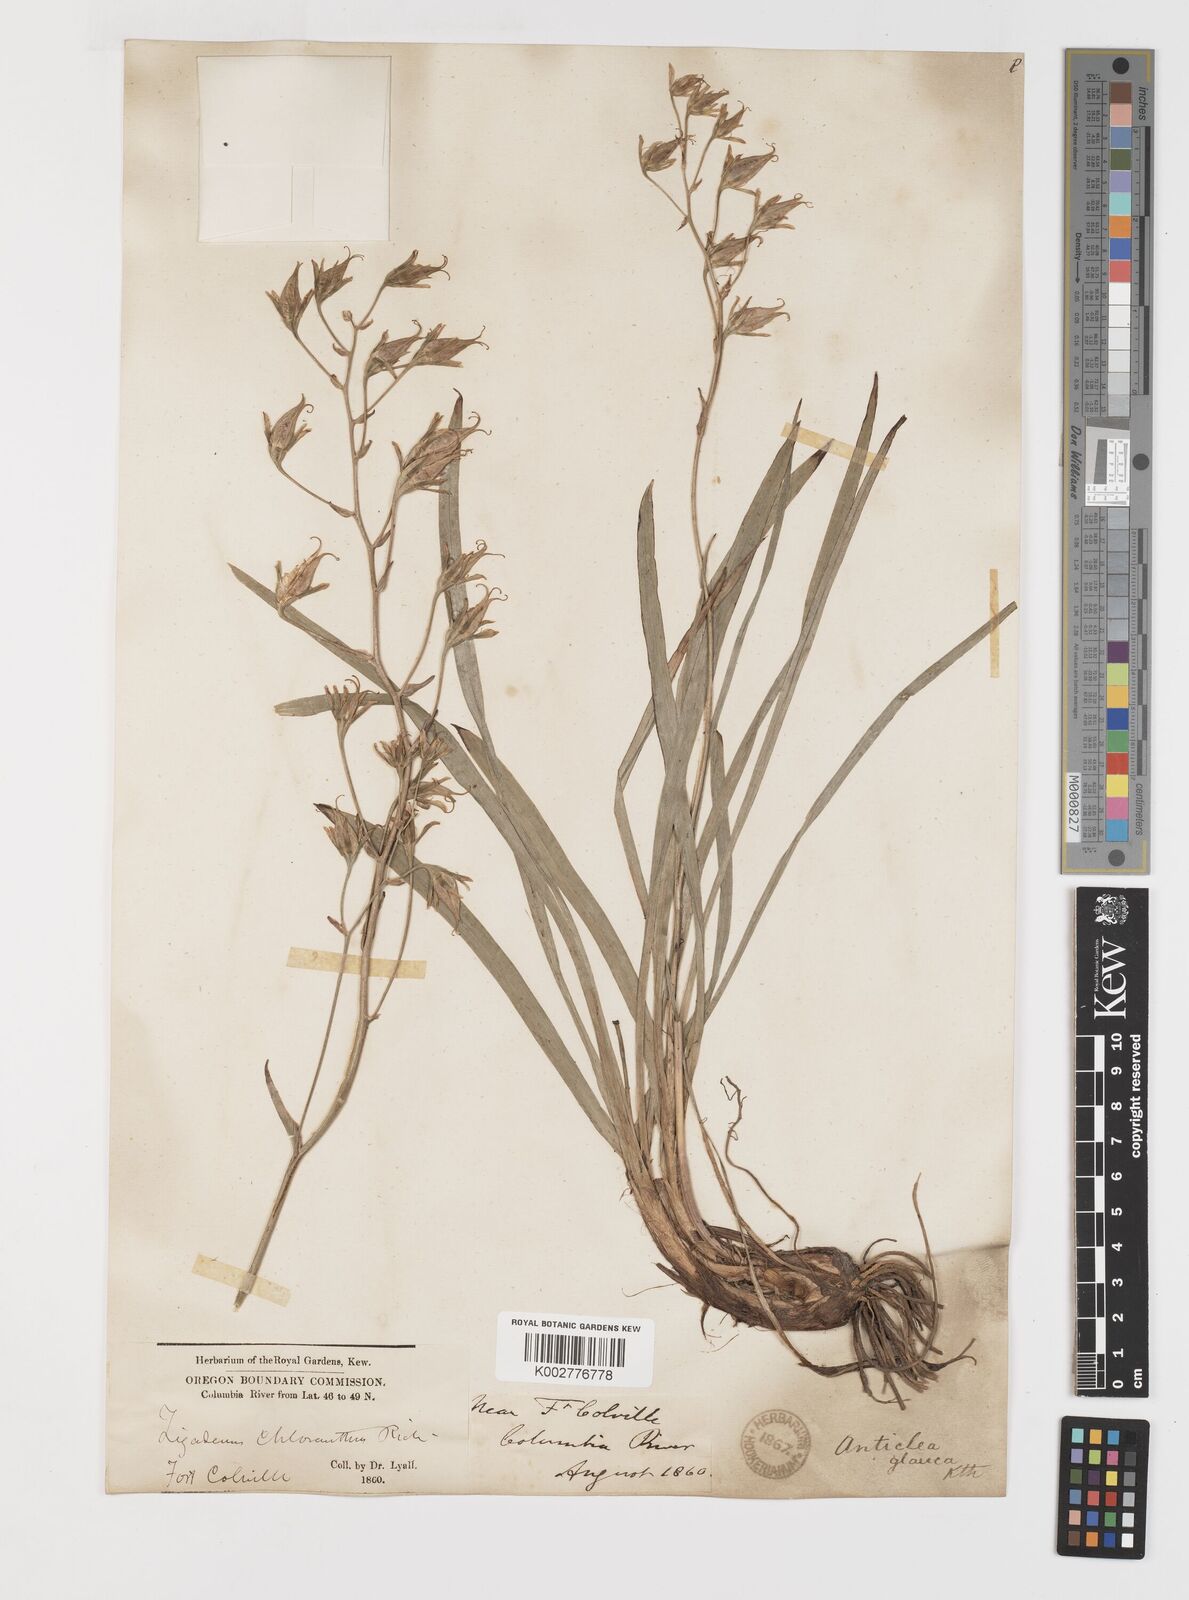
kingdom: Plantae
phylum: Tracheophyta
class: Liliopsida
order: Liliales
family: Melanthiaceae
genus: Anticlea
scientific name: Anticlea elegans
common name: Mountain death camas
